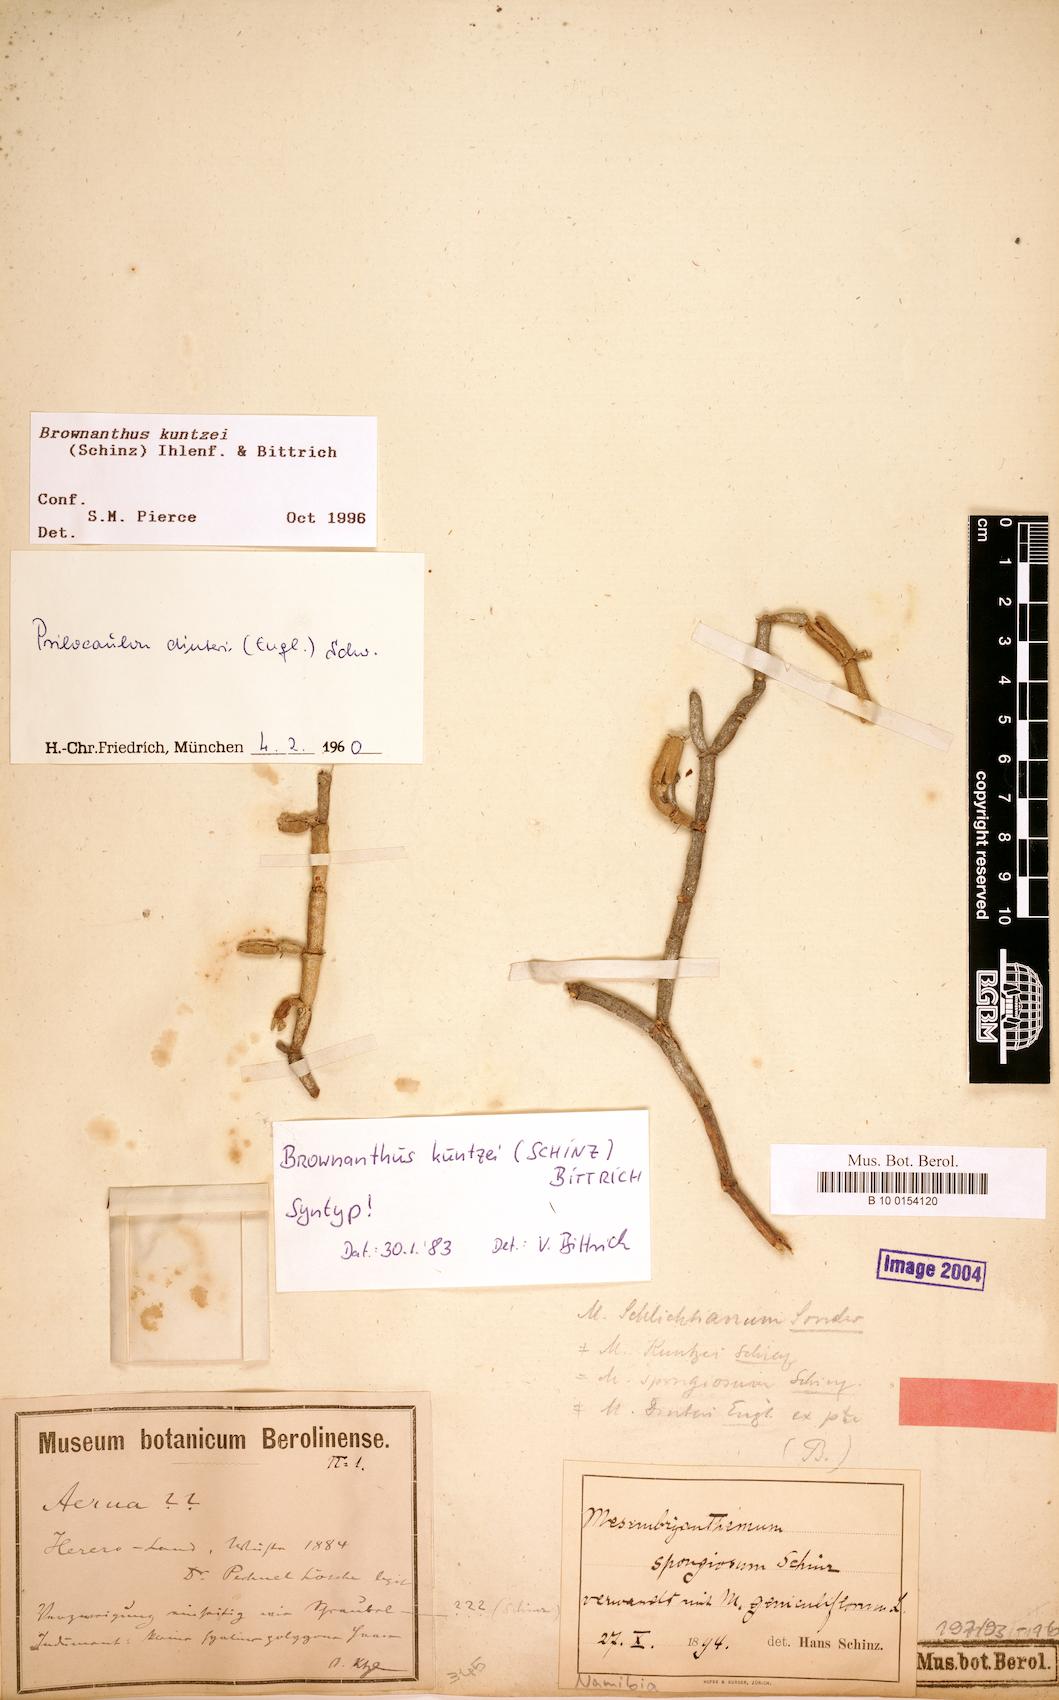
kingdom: Plantae
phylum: Tracheophyta
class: Magnoliopsida
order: Caryophyllales
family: Aizoaceae
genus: Mesembryanthemum
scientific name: Mesembryanthemum kuntzei
